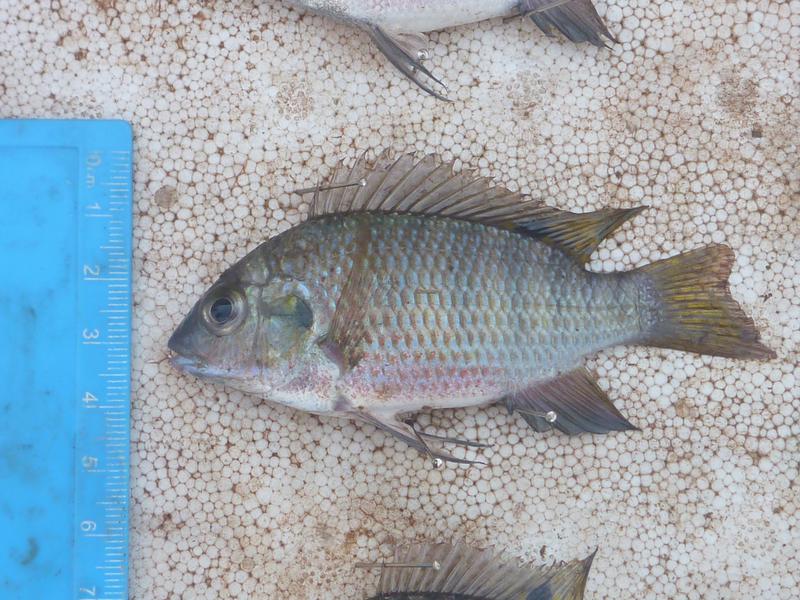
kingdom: Animalia
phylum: Chordata
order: Perciformes
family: Cichlidae
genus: Coptodon
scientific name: Coptodon rendalli
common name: Redbreast tilapia
